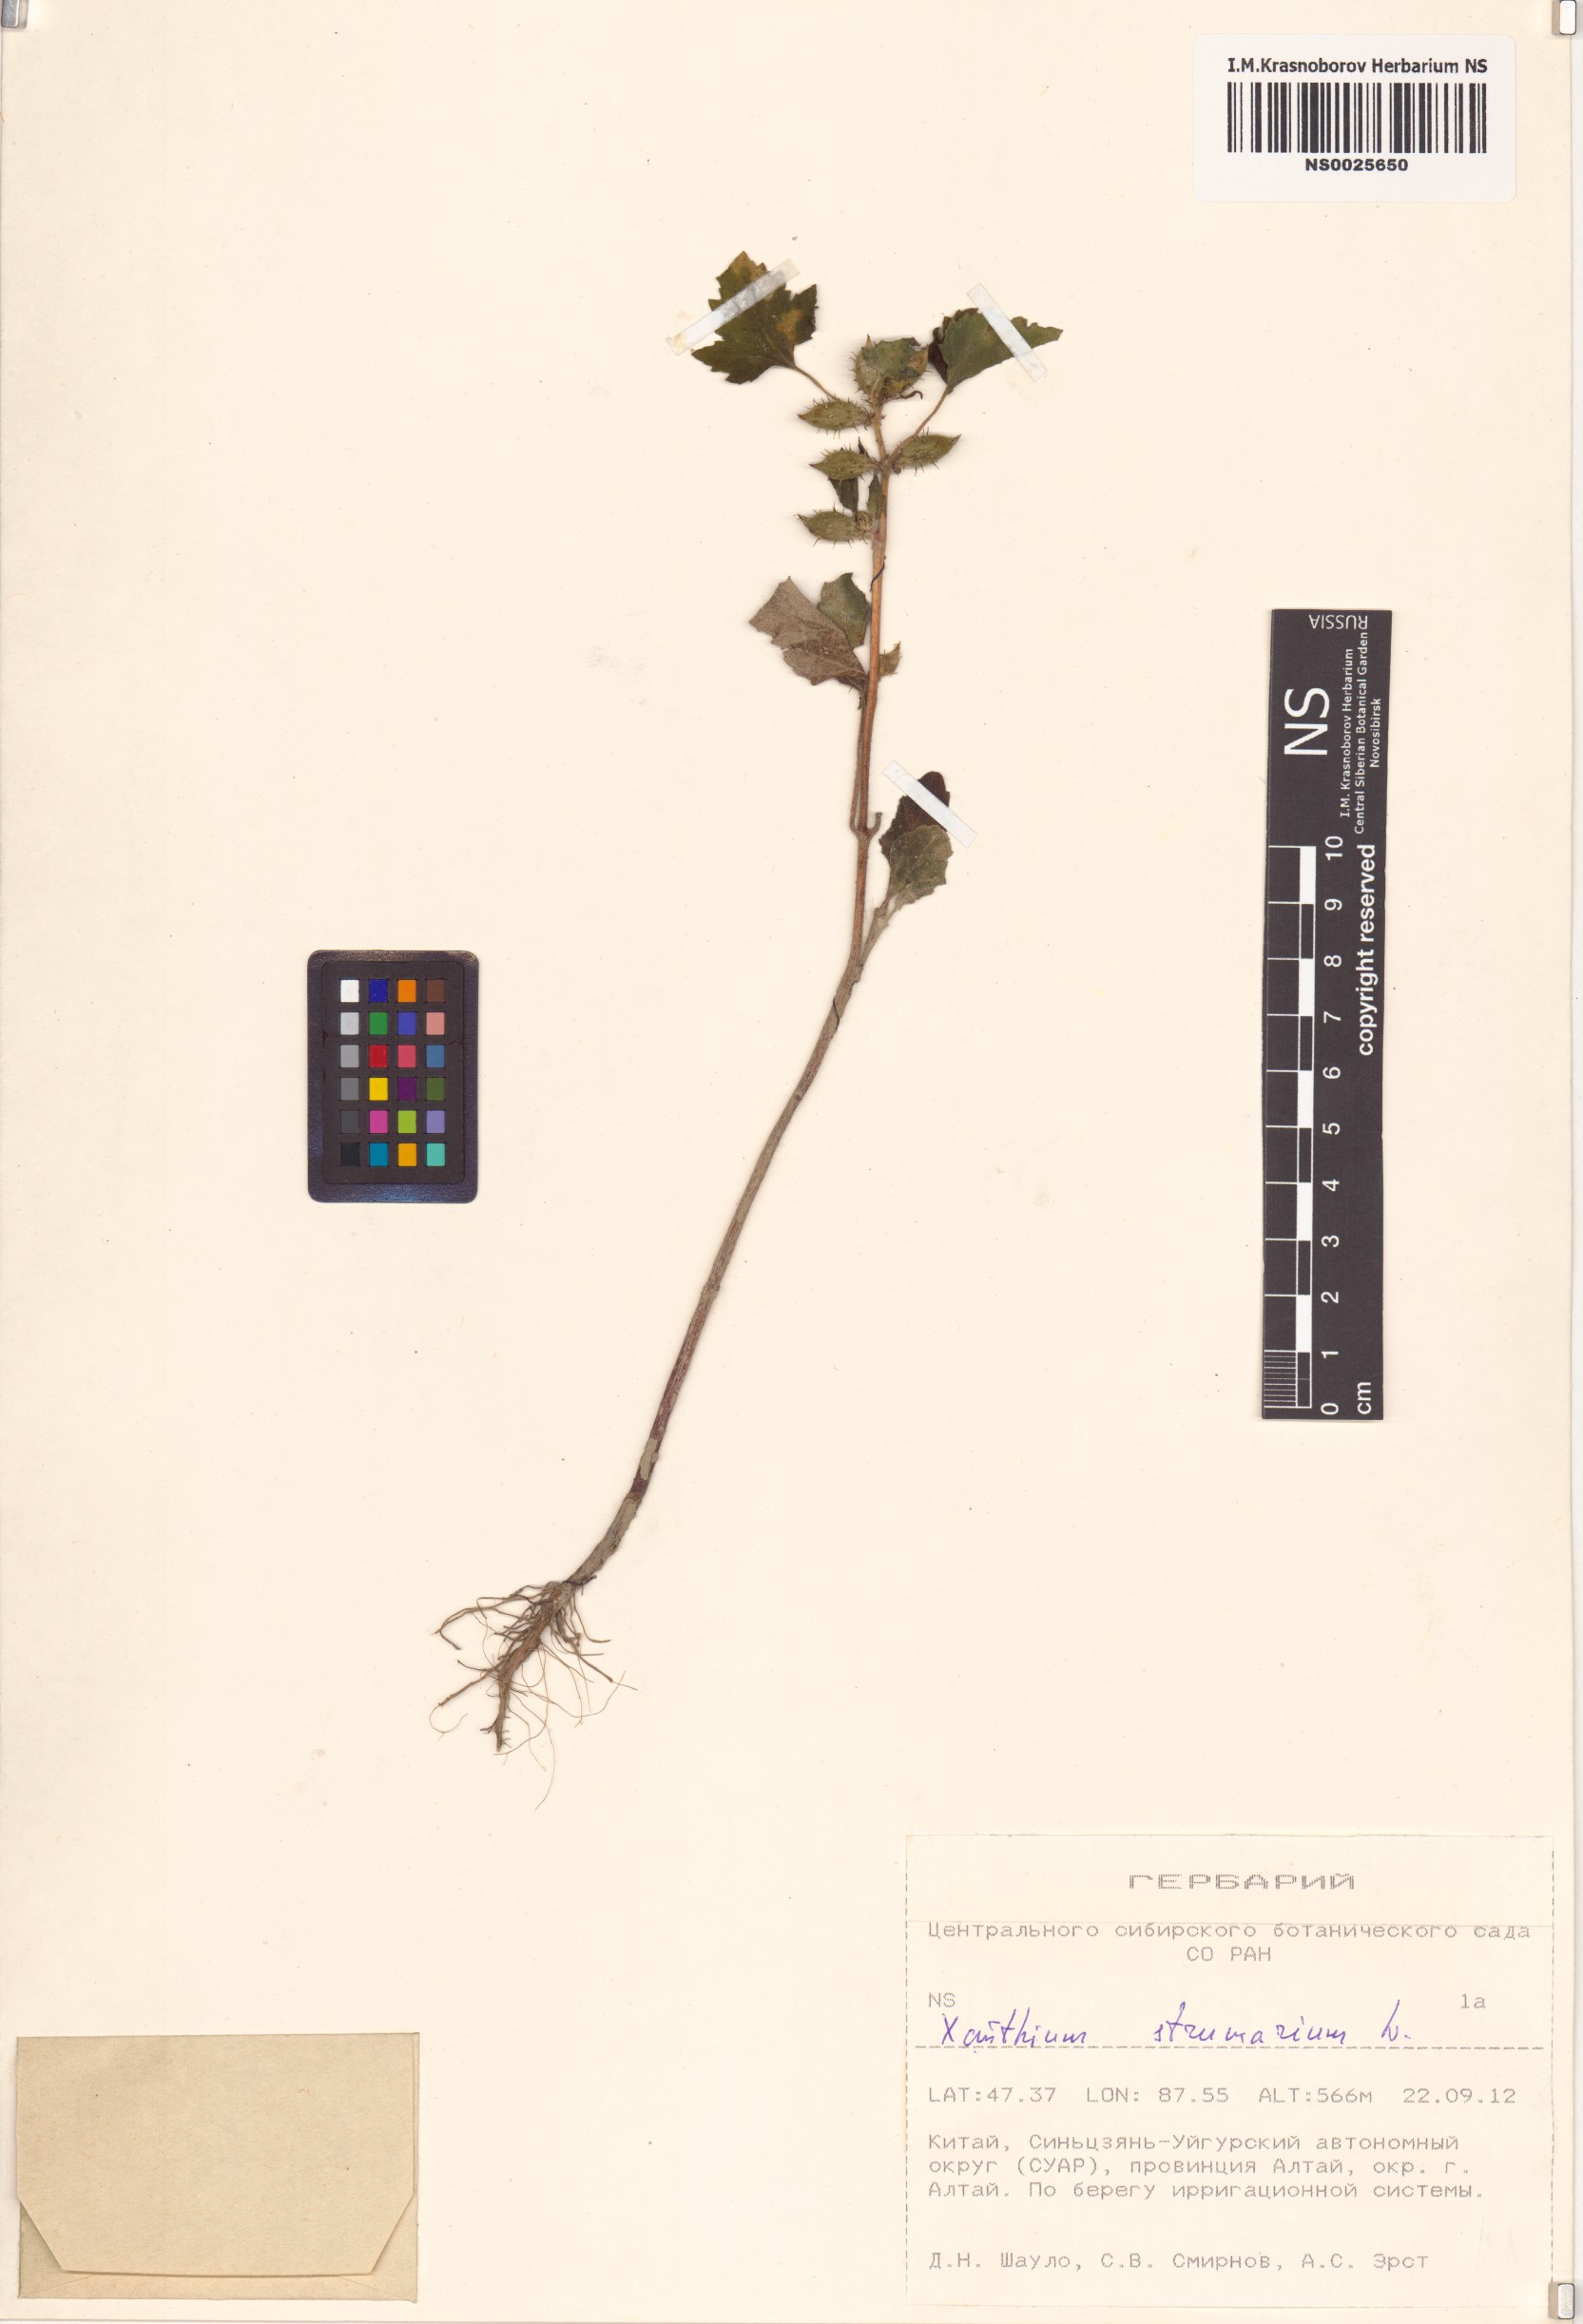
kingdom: Plantae
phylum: Tracheophyta
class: Magnoliopsida
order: Asterales
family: Asteraceae
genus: Xanthium
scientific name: Xanthium strumarium
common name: Rough cocklebur
